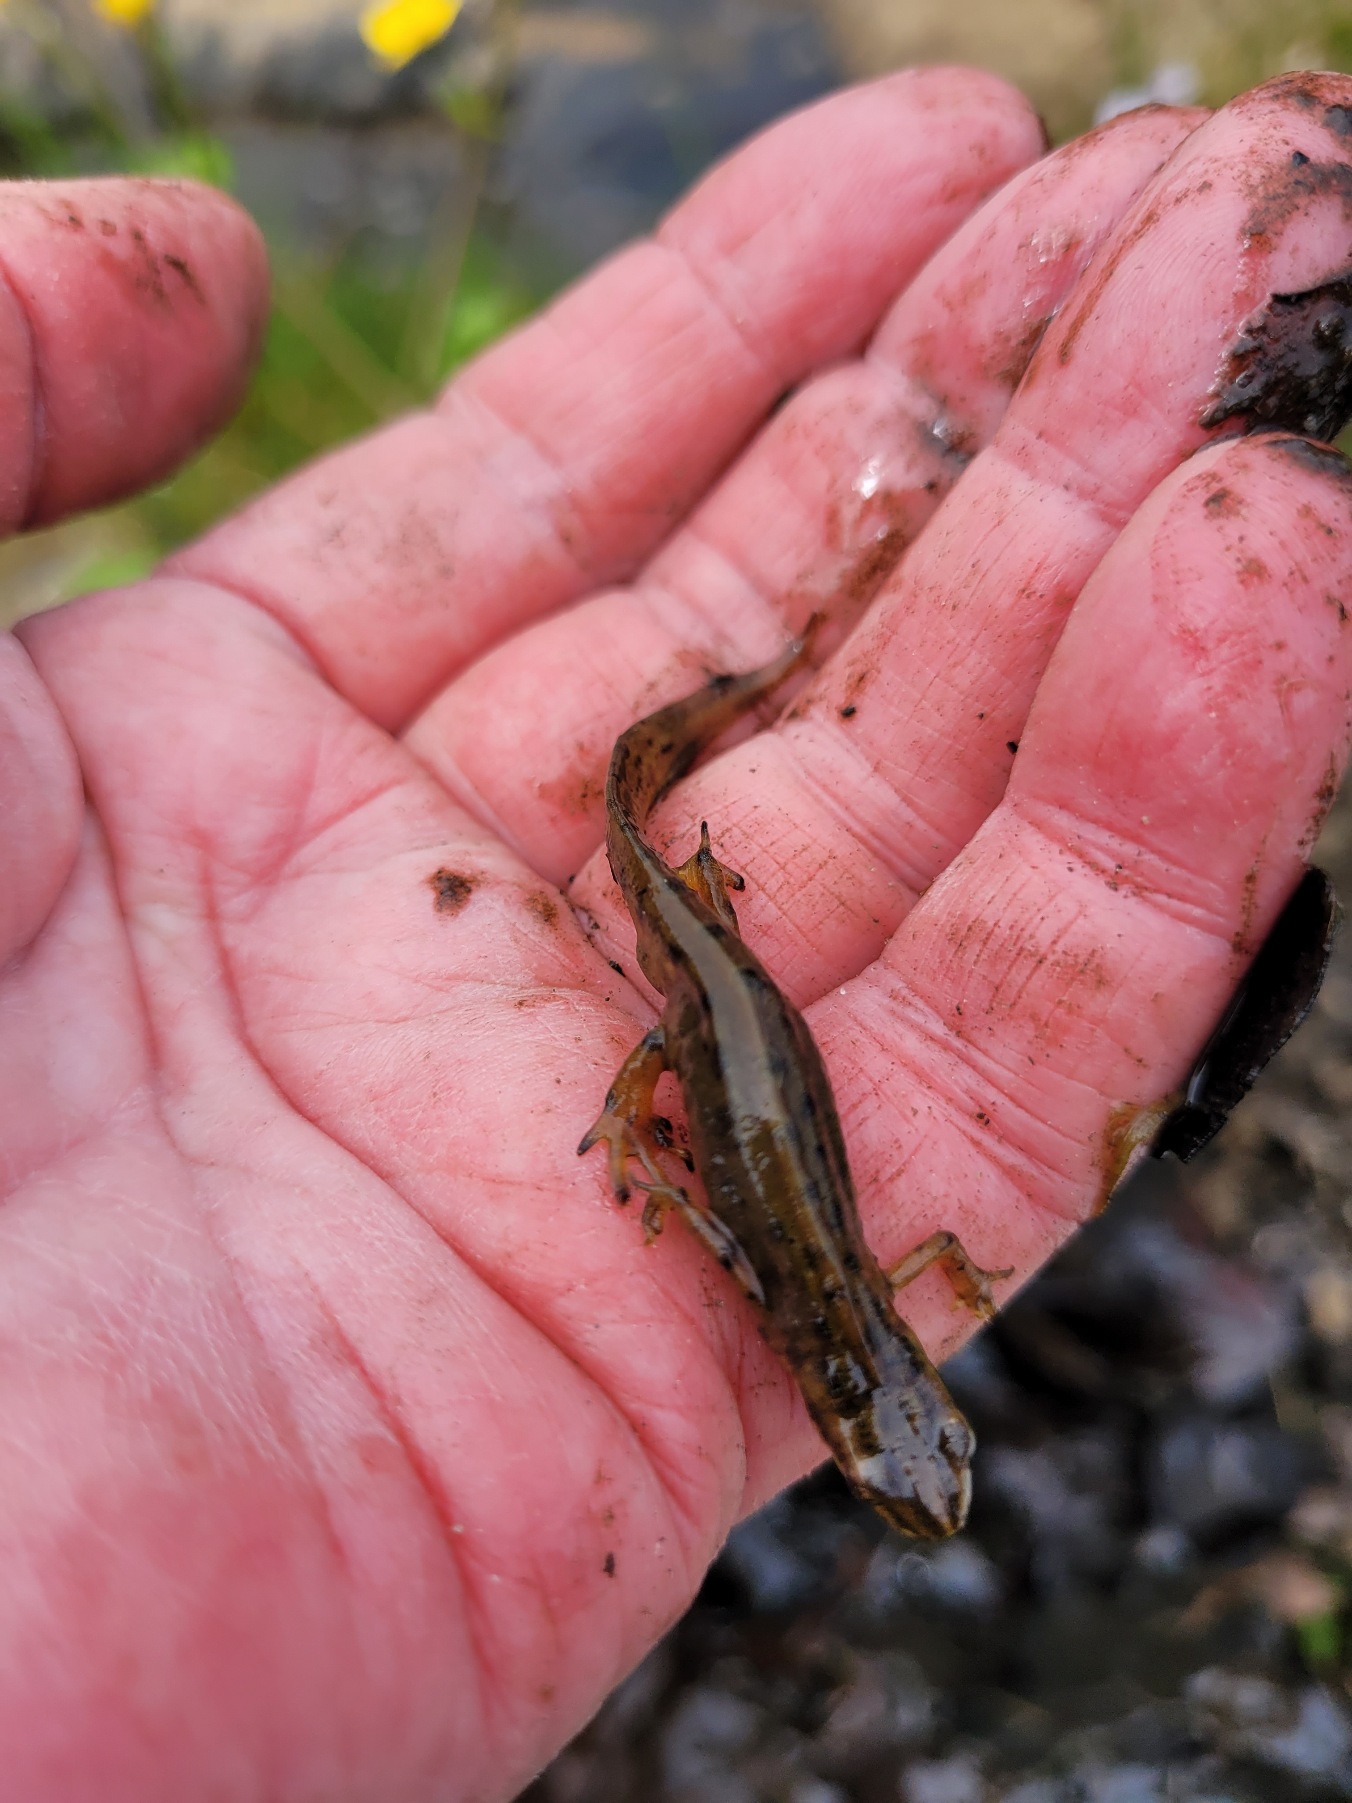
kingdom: Animalia
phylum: Chordata
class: Amphibia
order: Caudata
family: Salamandridae
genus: Lissotriton
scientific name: Lissotriton vulgaris
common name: Lille vandsalamander
